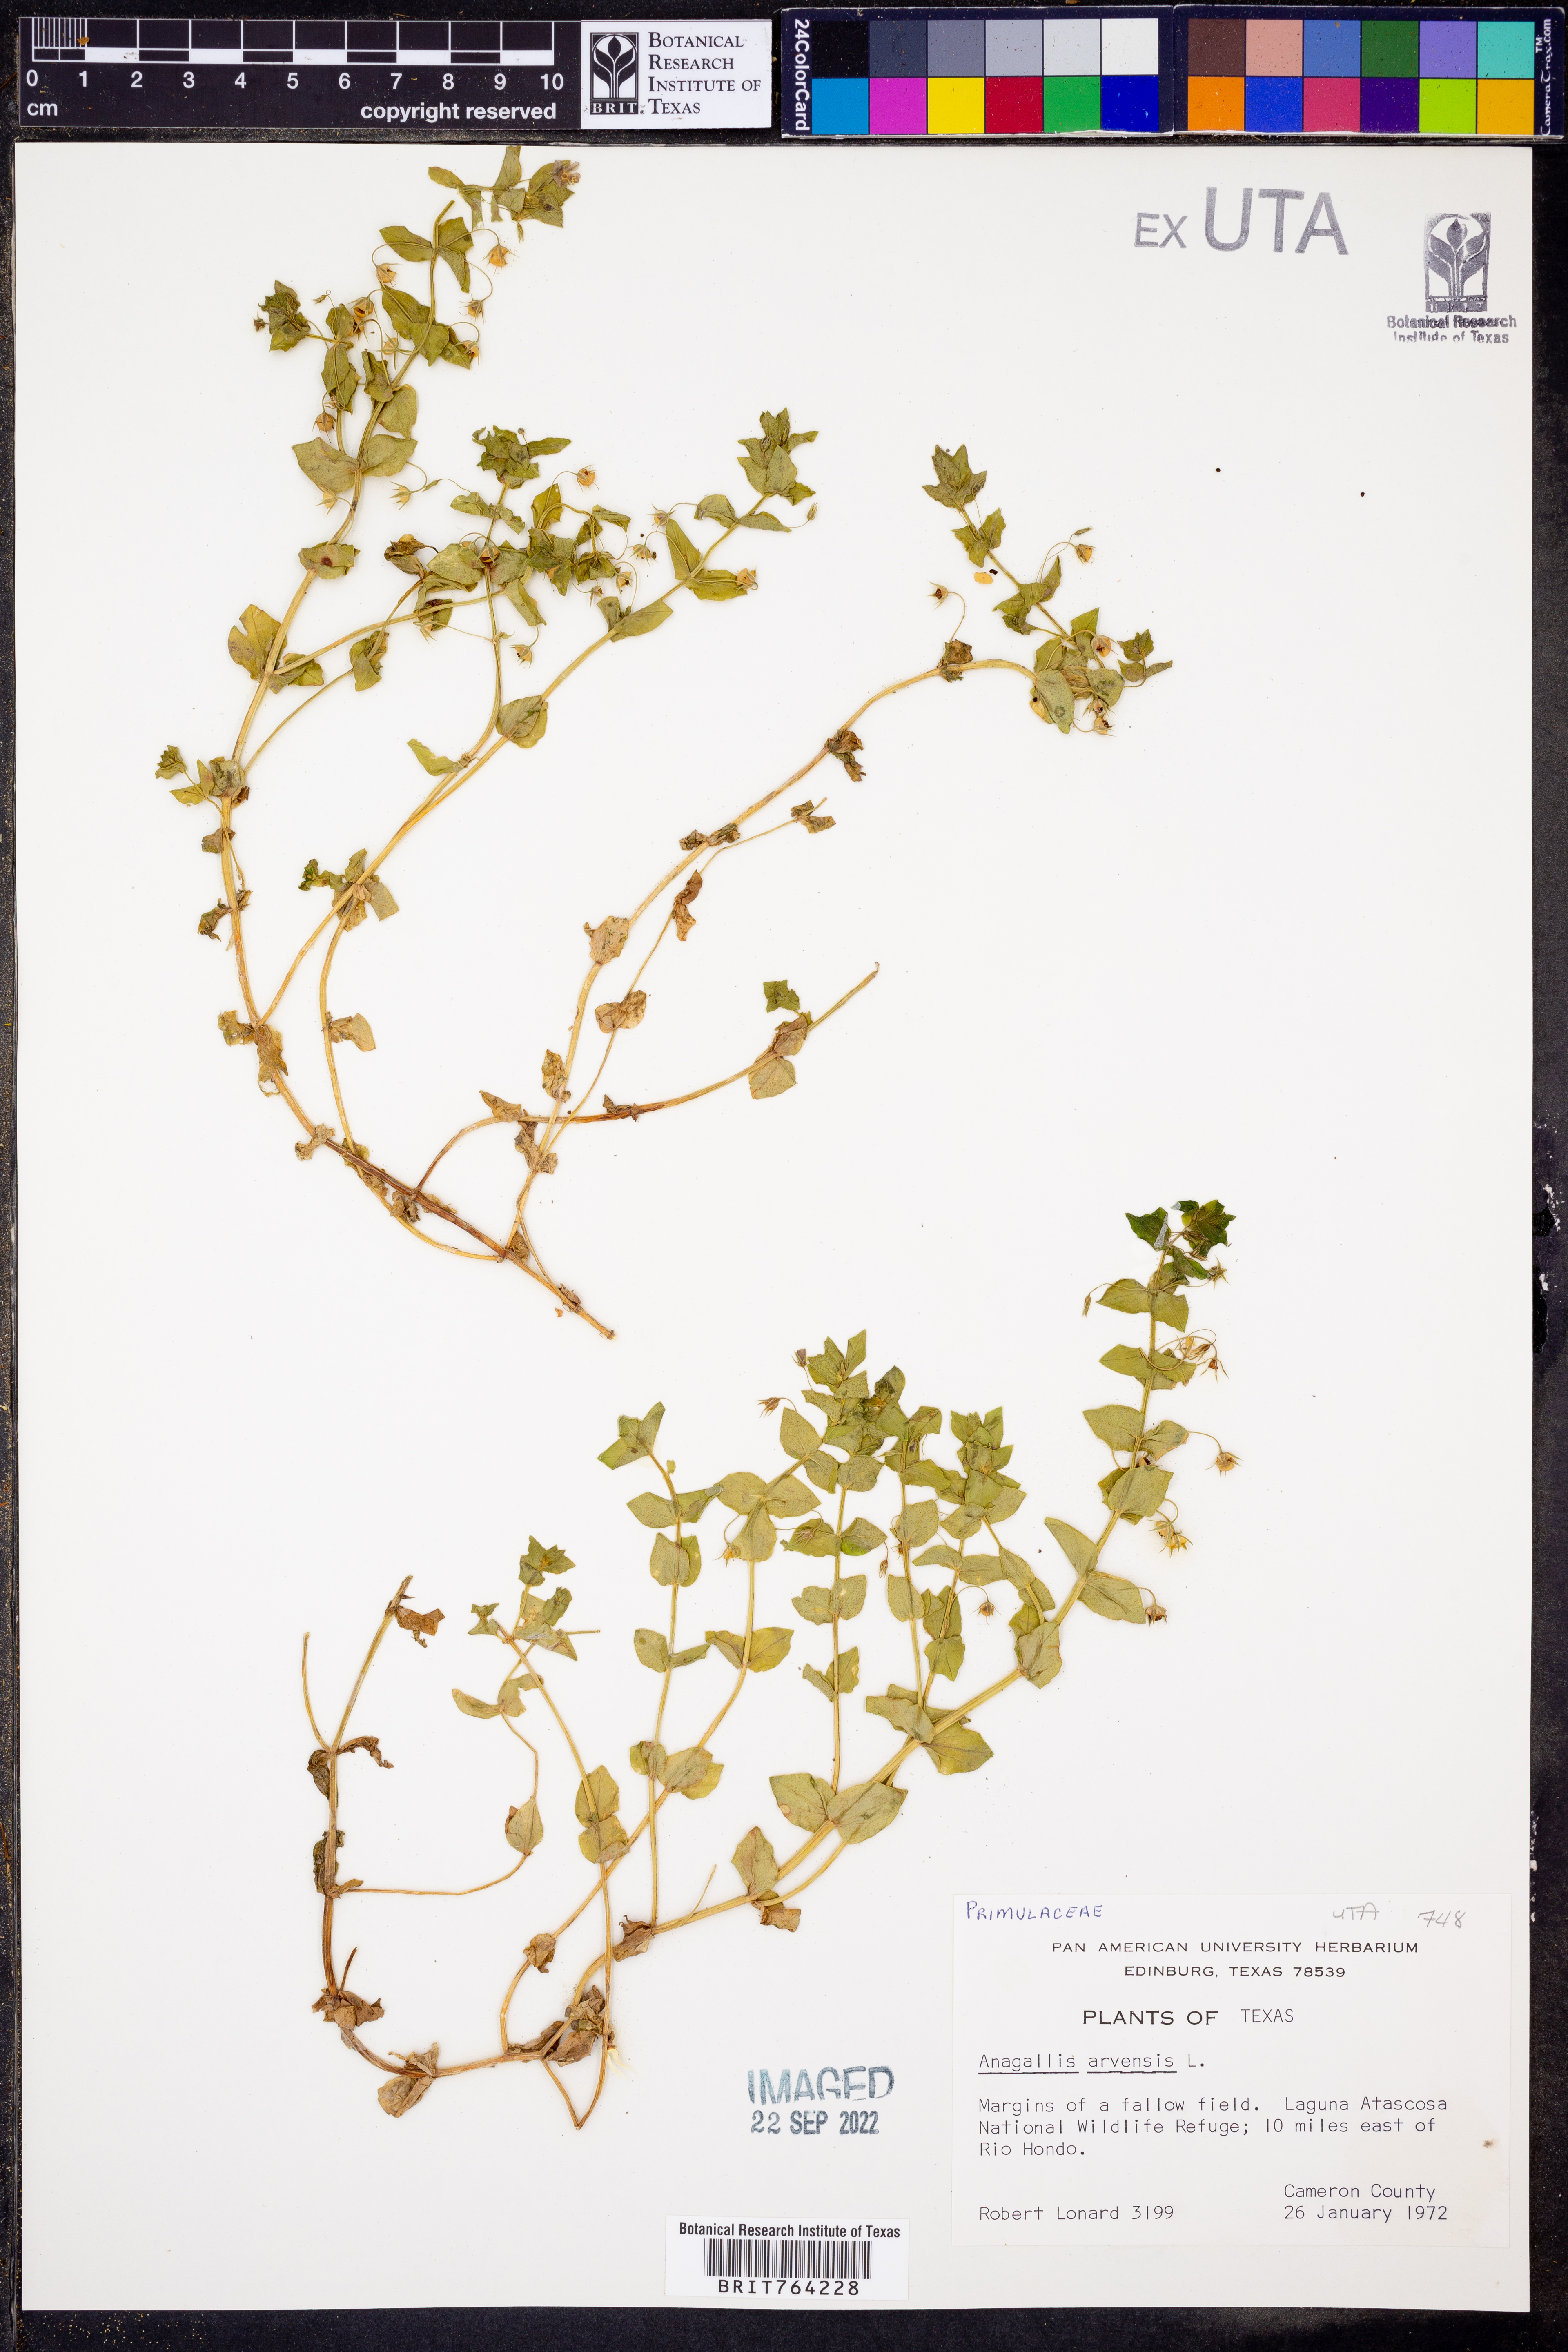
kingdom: Plantae
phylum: Tracheophyta
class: Magnoliopsida
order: Ericales
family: Primulaceae
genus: Lysimachia
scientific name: Lysimachia arvensis
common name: Scarlet pimpernel
